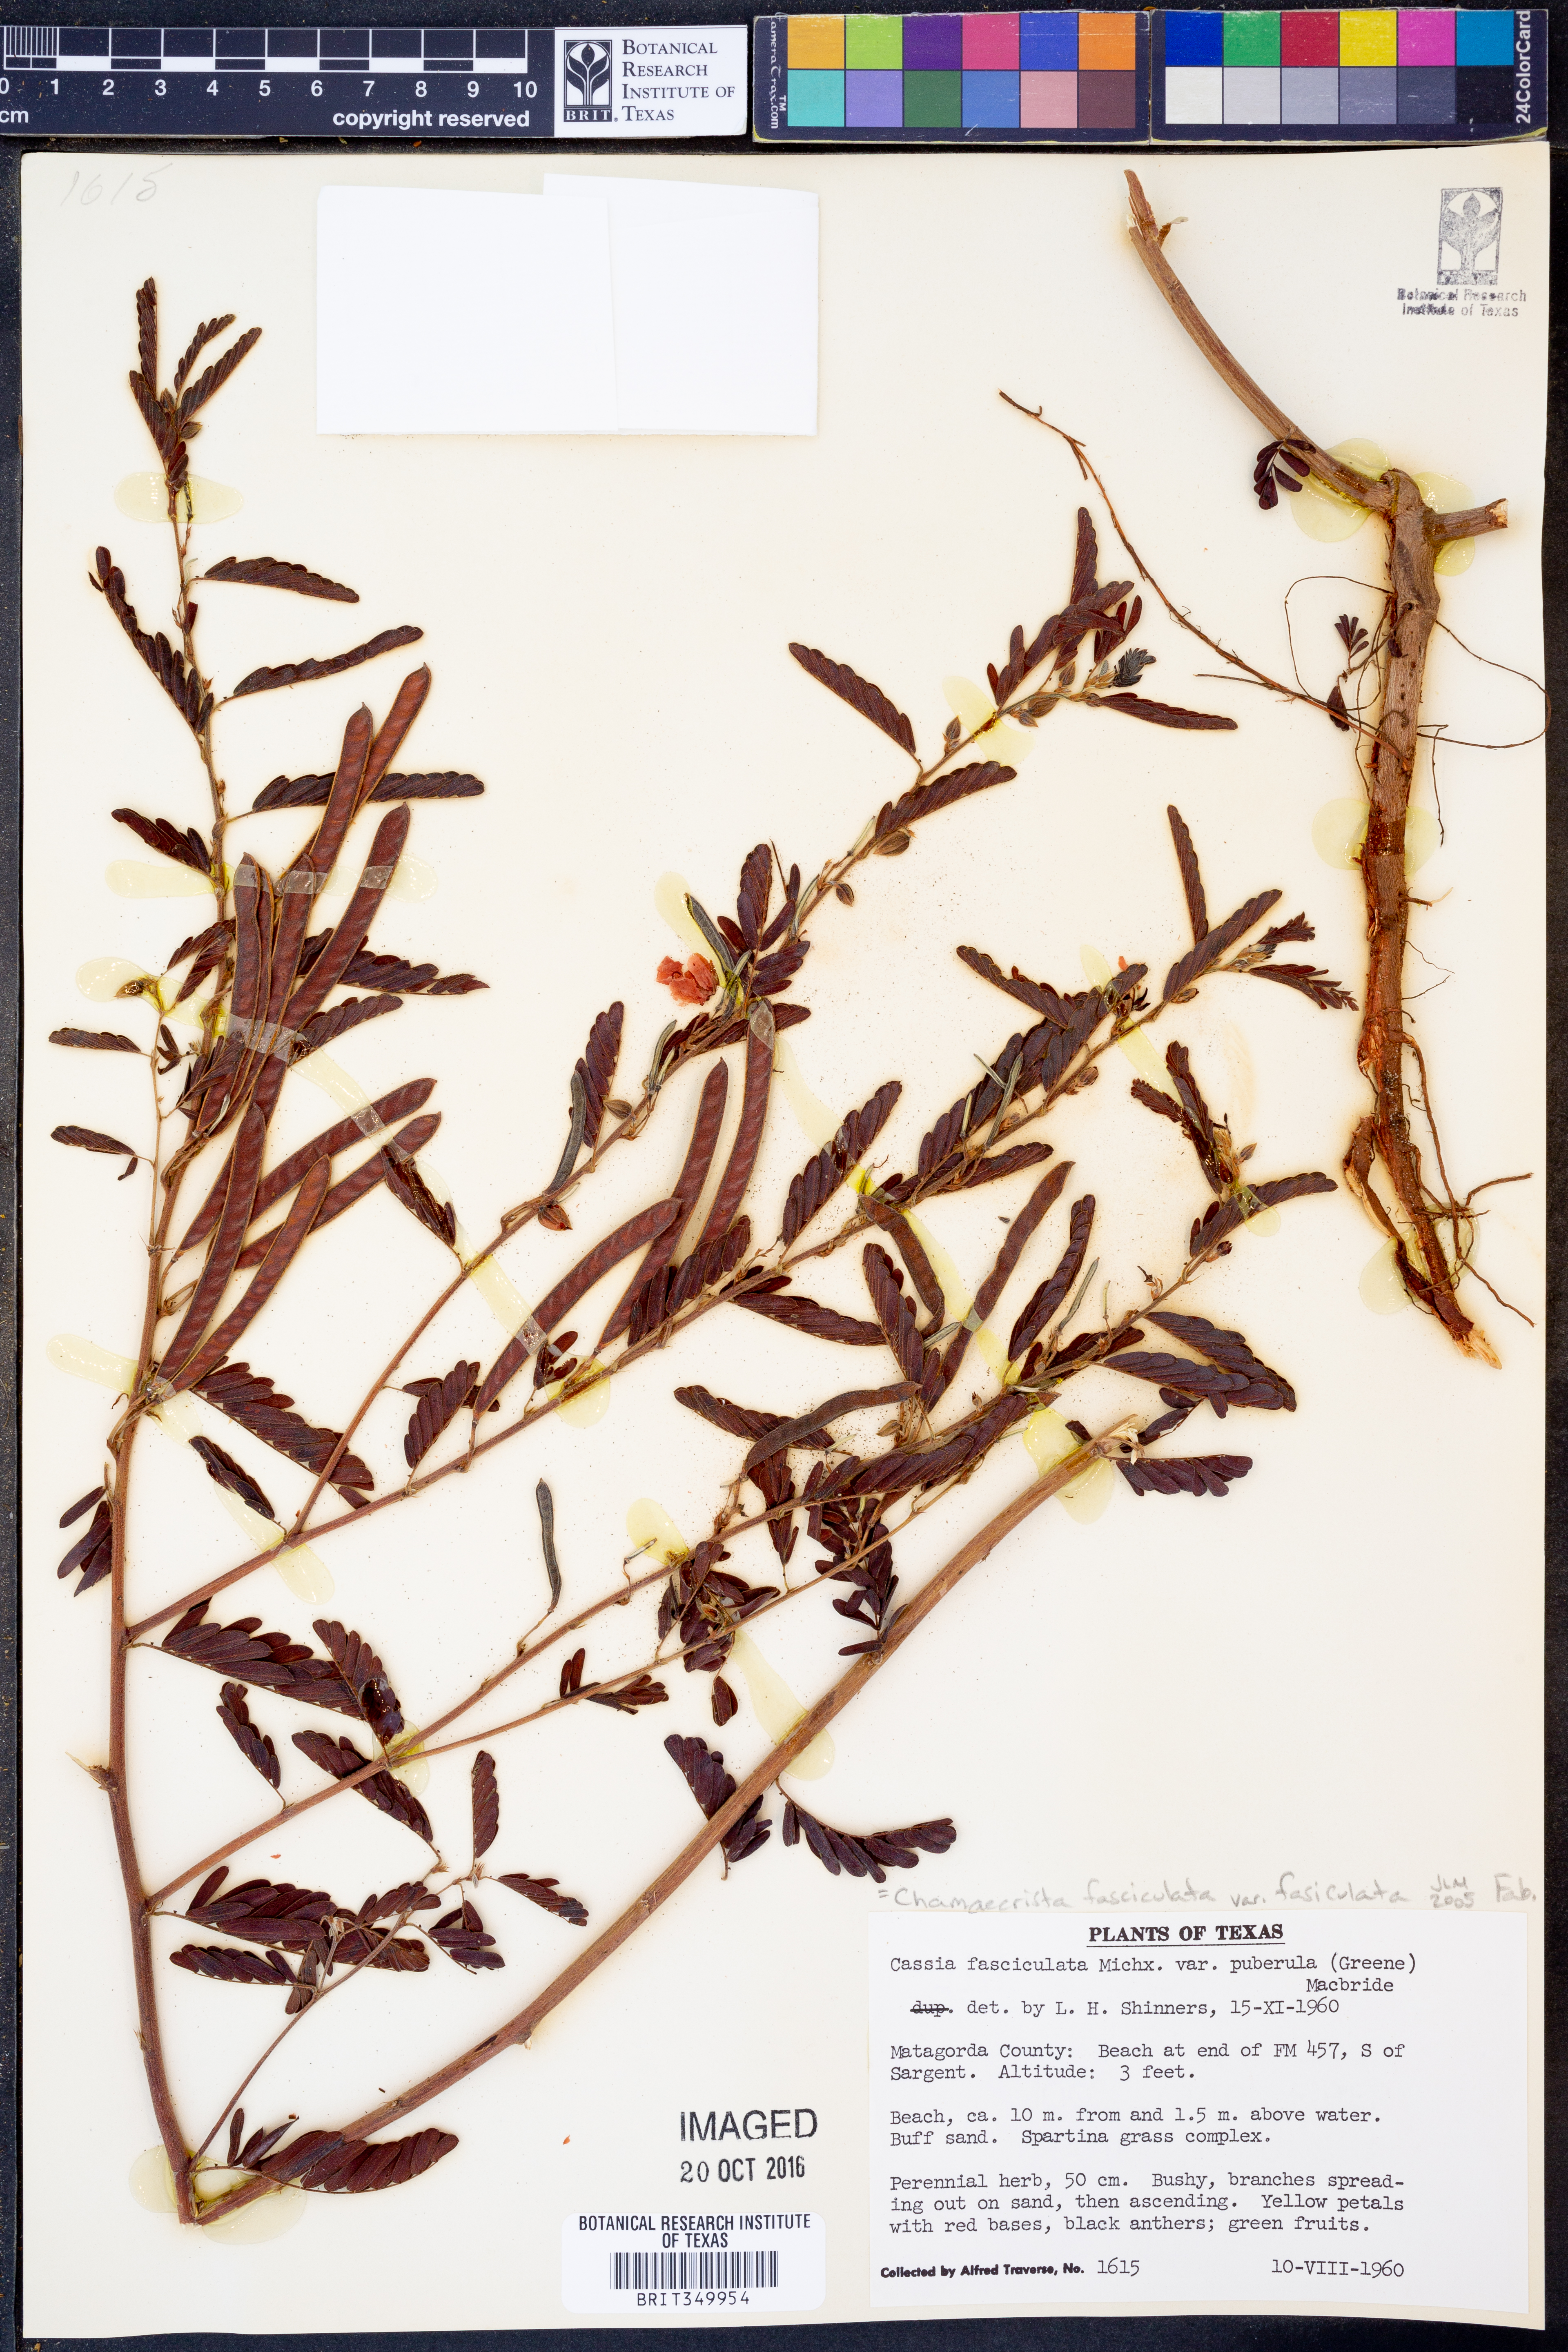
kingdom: Plantae
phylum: Tracheophyta
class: Magnoliopsida
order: Fabales
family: Fabaceae
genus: Chamaecrista
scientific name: Chamaecrista fasciculata
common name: Golden cassia
